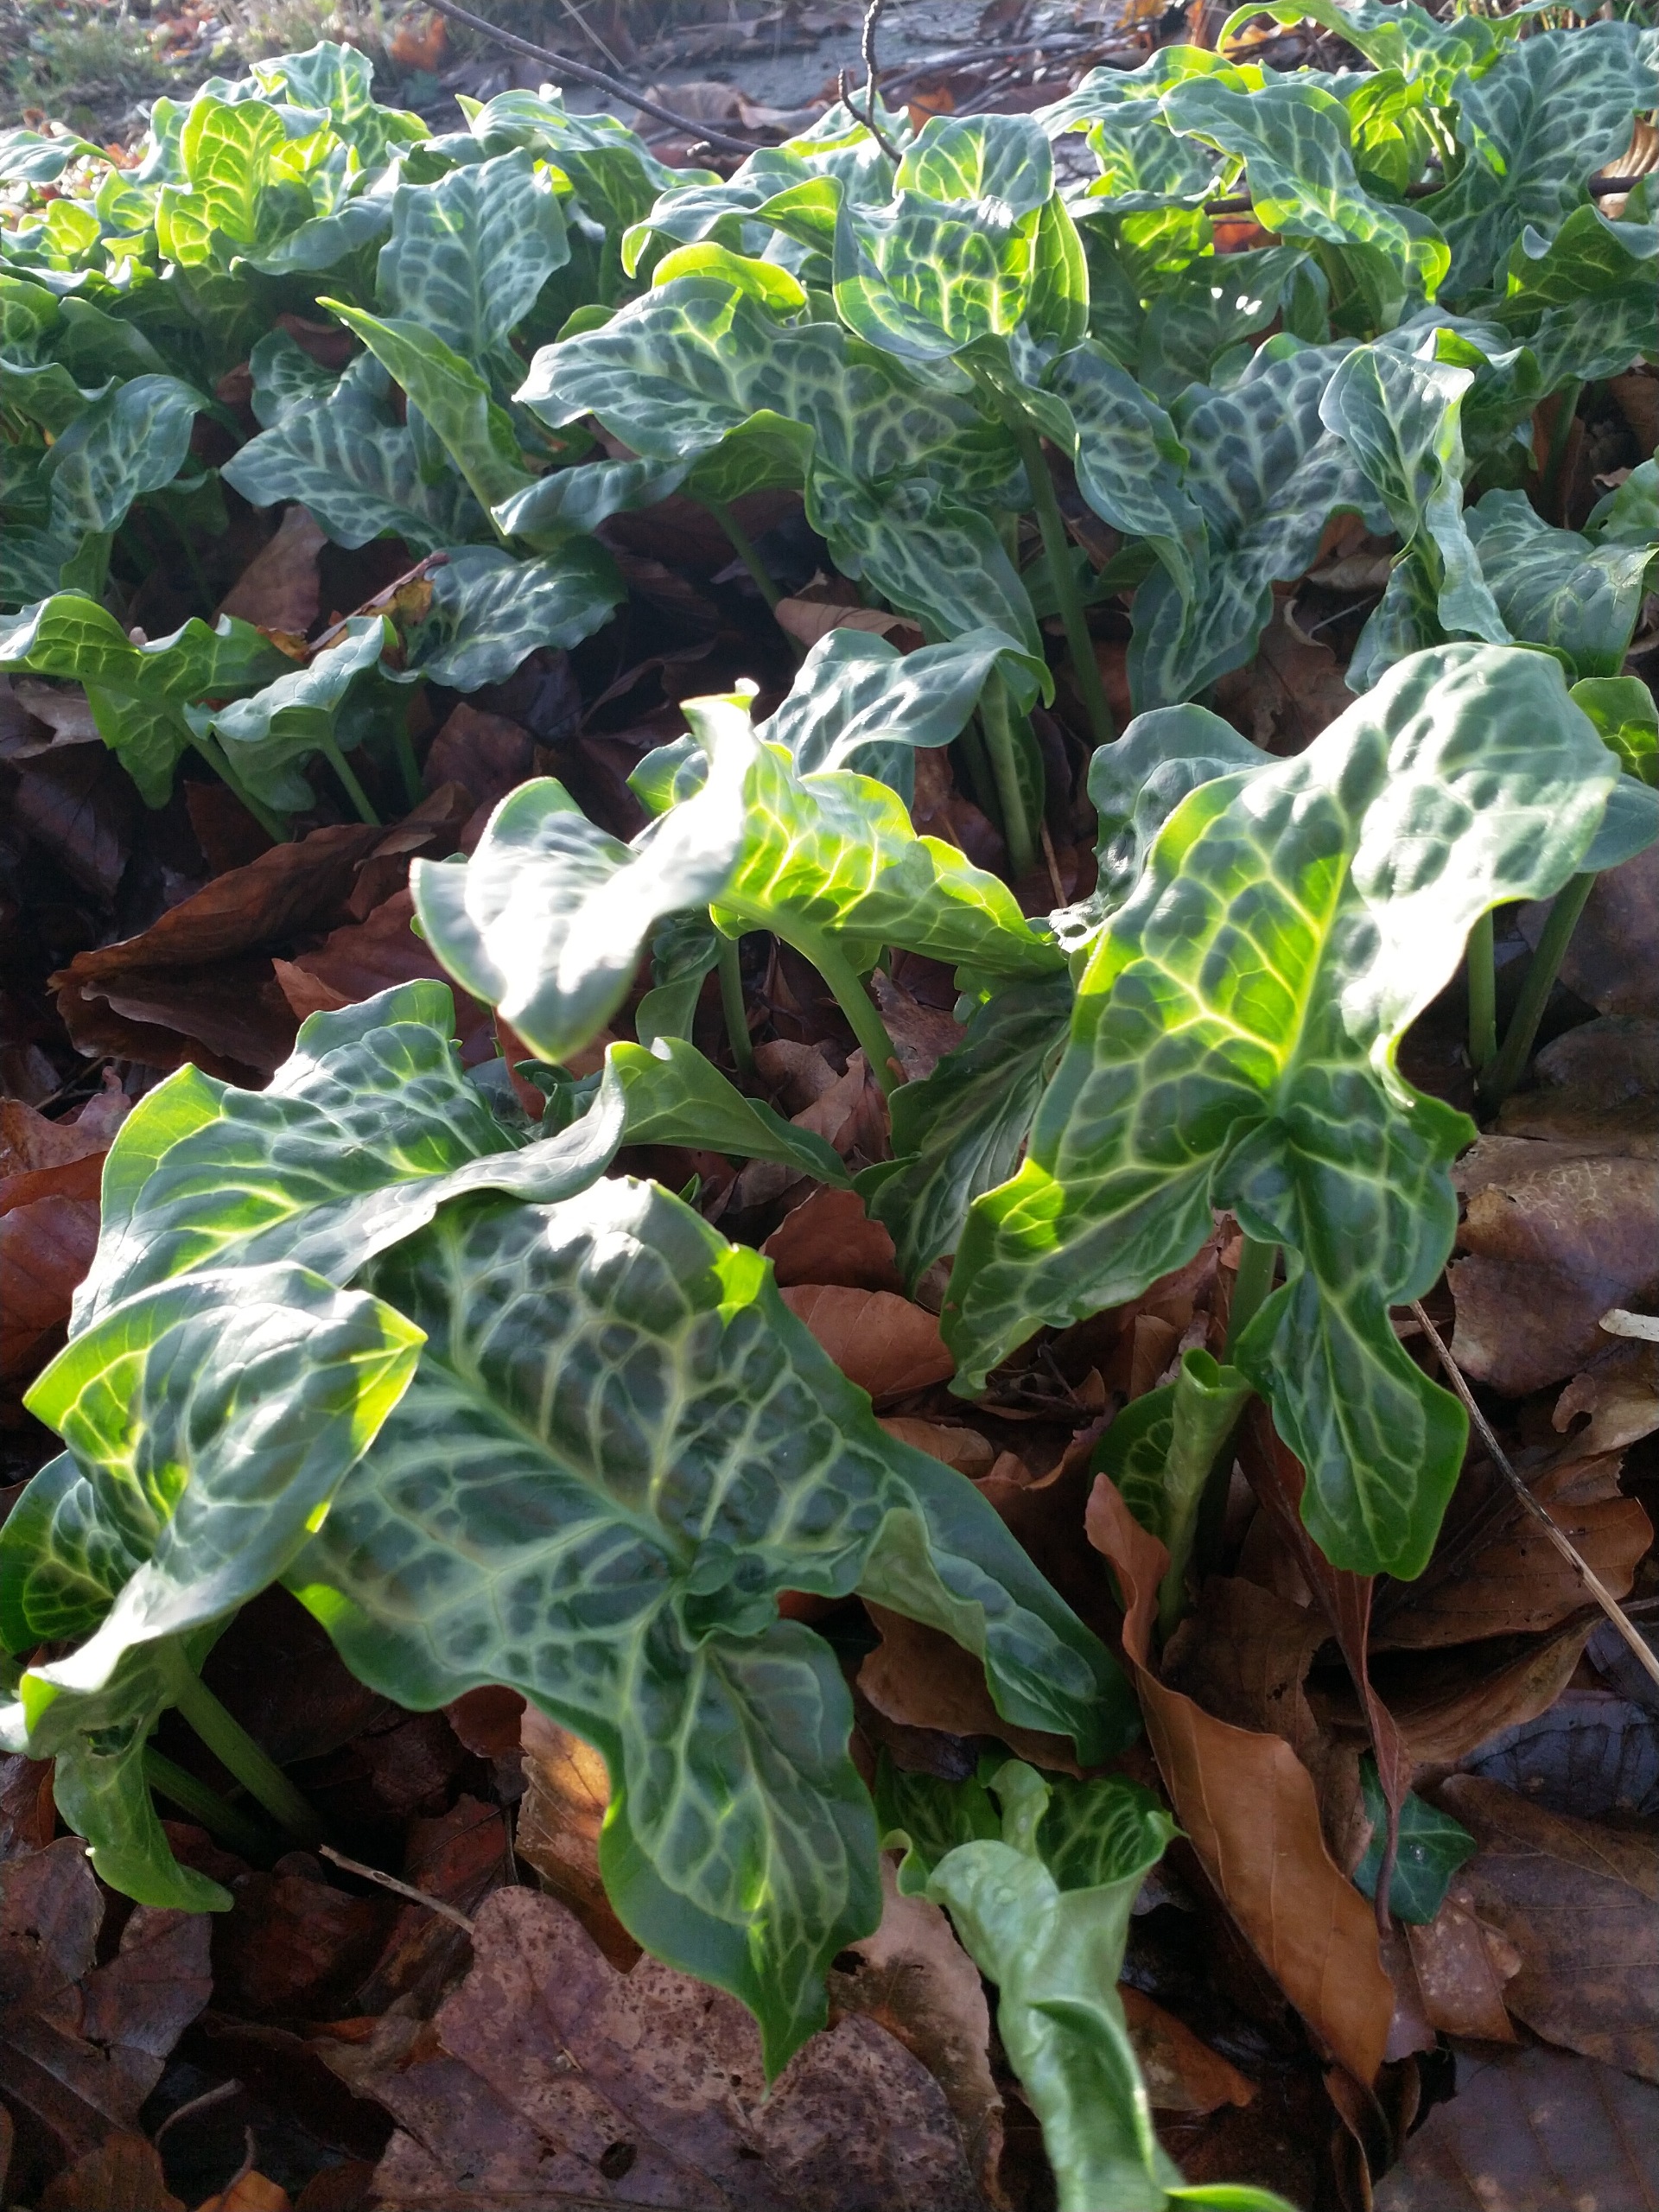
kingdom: Plantae
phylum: Tracheophyta
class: Liliopsida
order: Alismatales
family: Araceae
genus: Arum
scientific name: Arum italicum
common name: Italiensk arum
